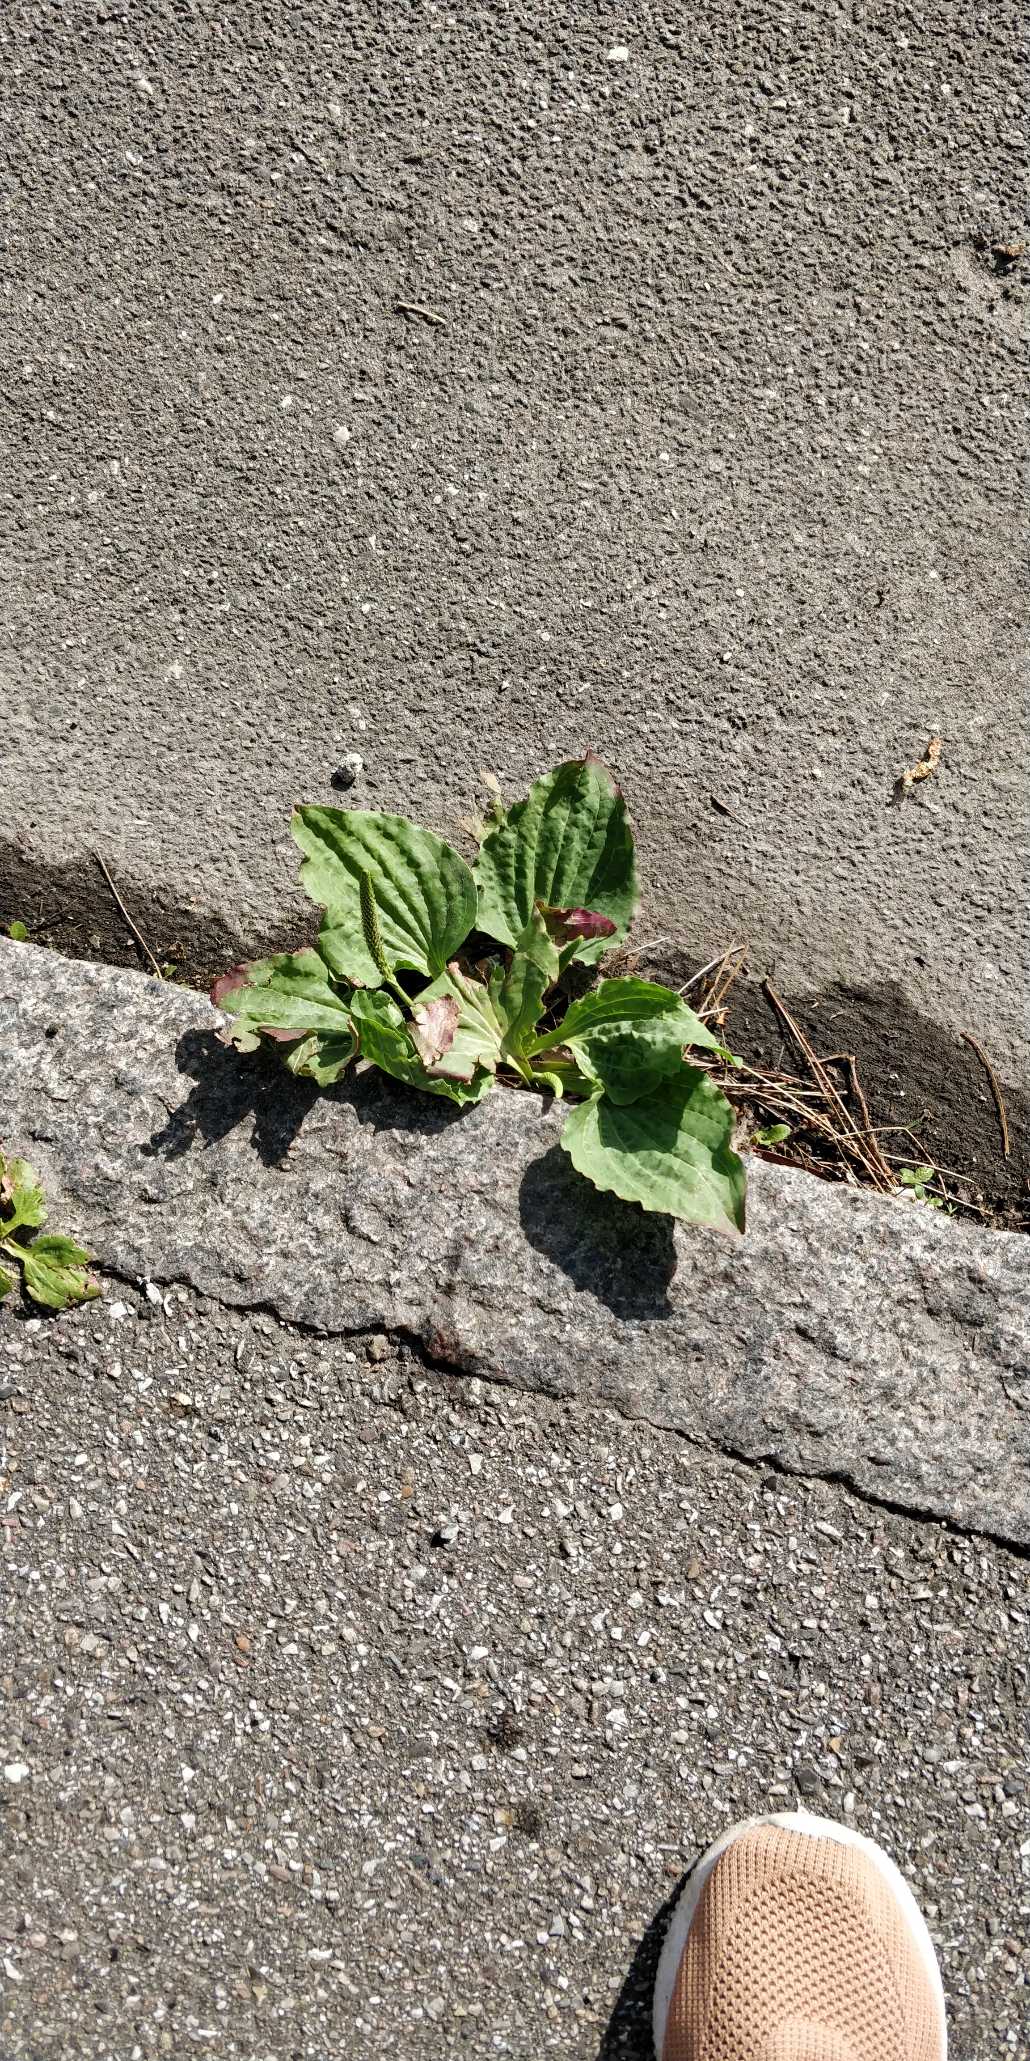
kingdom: Plantae
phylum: Tracheophyta
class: Magnoliopsida
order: Lamiales
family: Plantaginaceae
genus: Plantago
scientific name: Plantago major
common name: Glat vejbred
